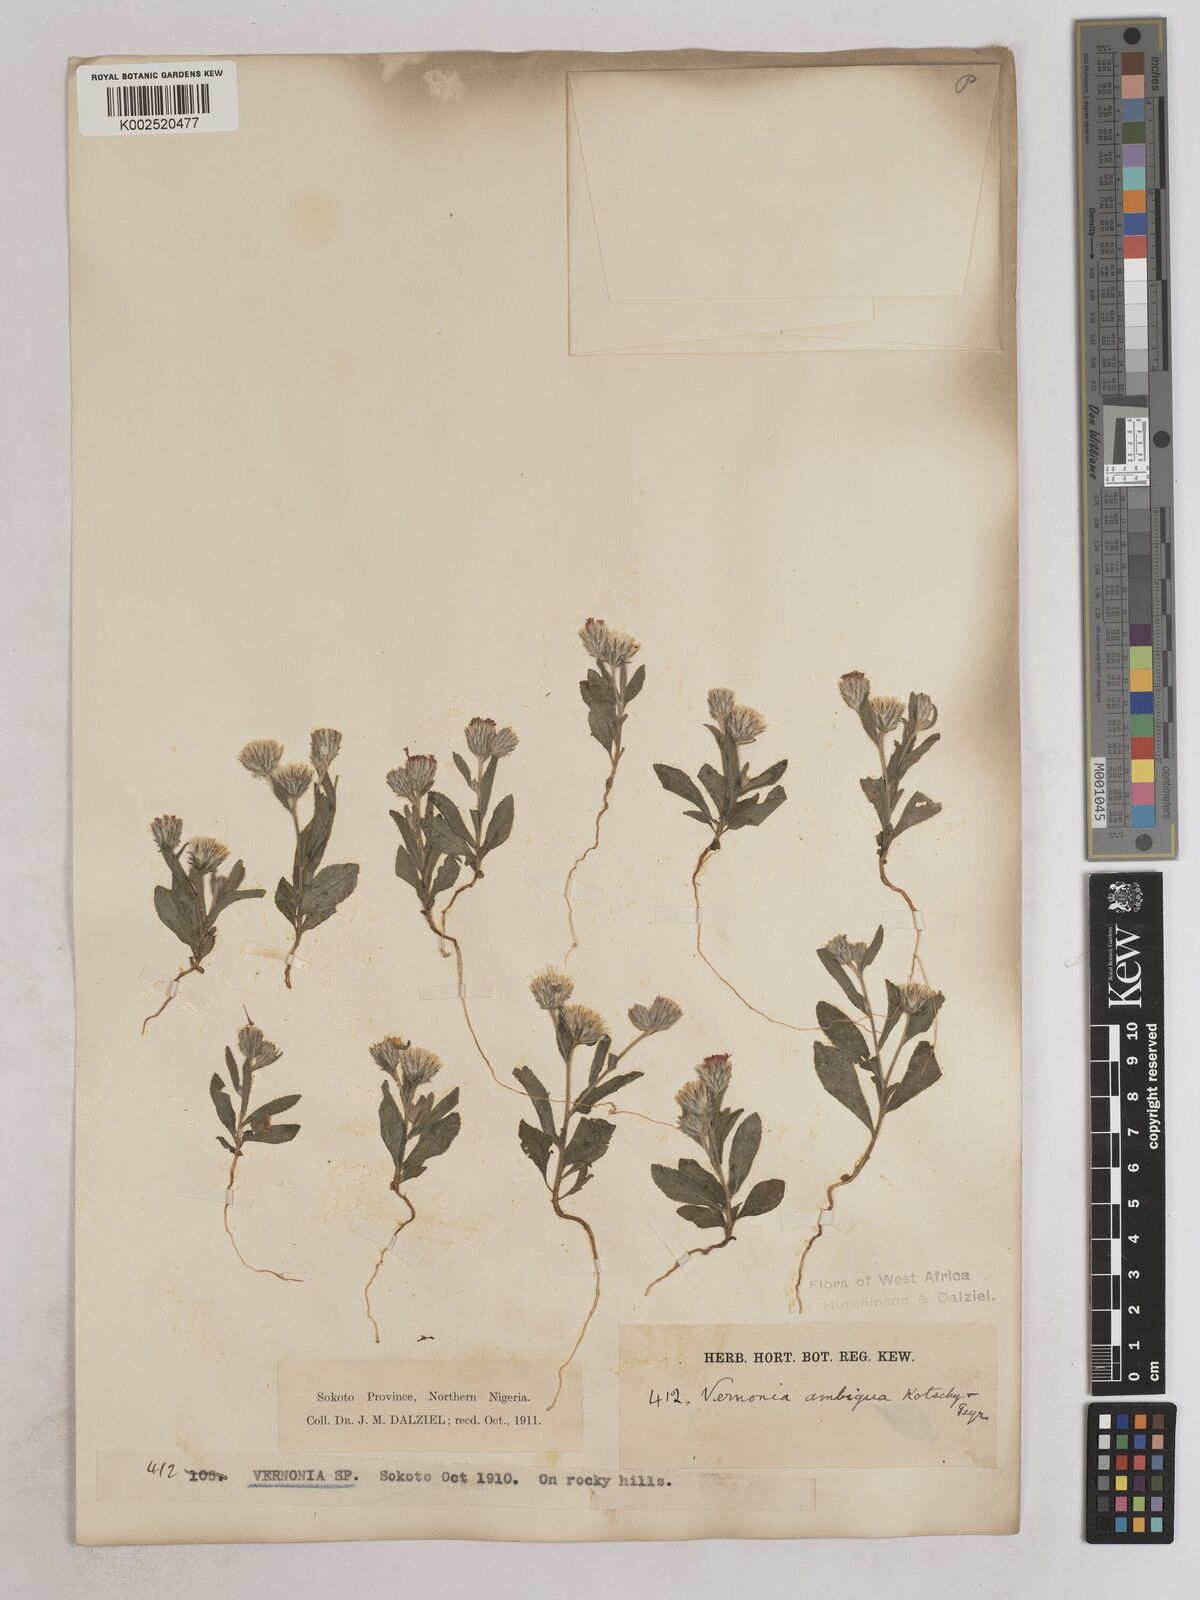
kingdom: Plantae
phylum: Tracheophyta
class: Magnoliopsida
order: Asterales
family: Asteraceae
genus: Vernoniastrum
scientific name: Vernoniastrum ambiguum
